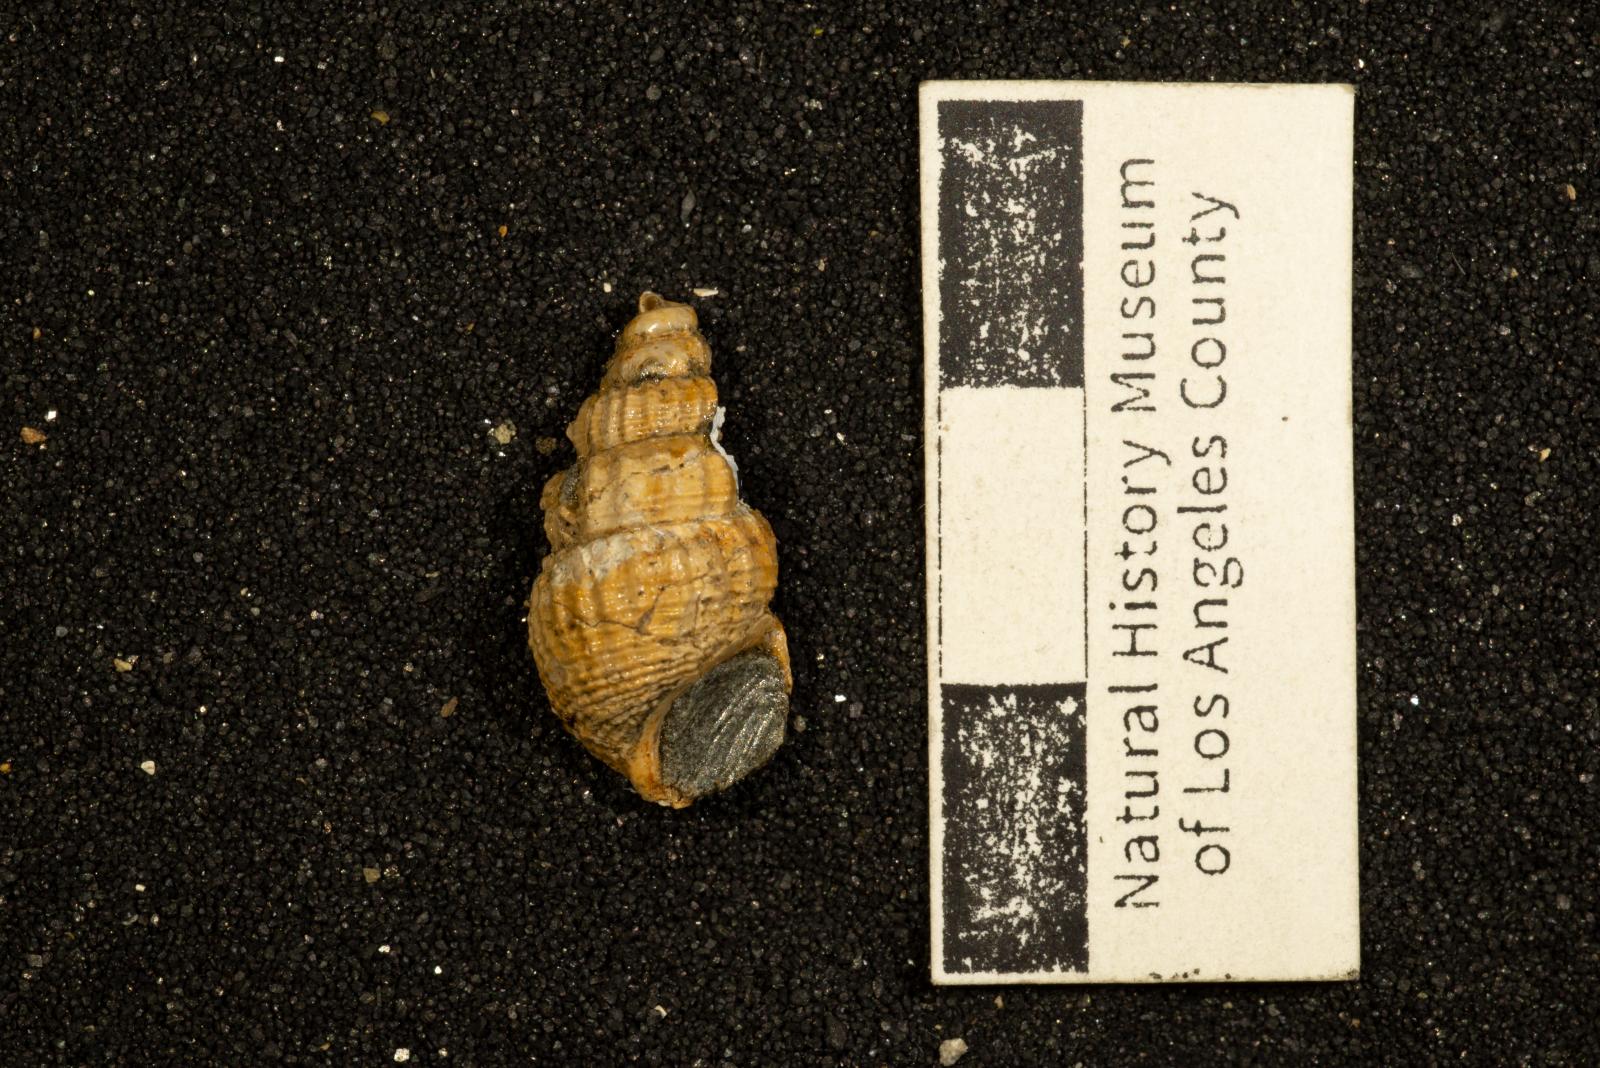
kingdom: Animalia
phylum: Mollusca
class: Gastropoda
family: Epitoniidae
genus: Belliscala
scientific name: Belliscala meta
